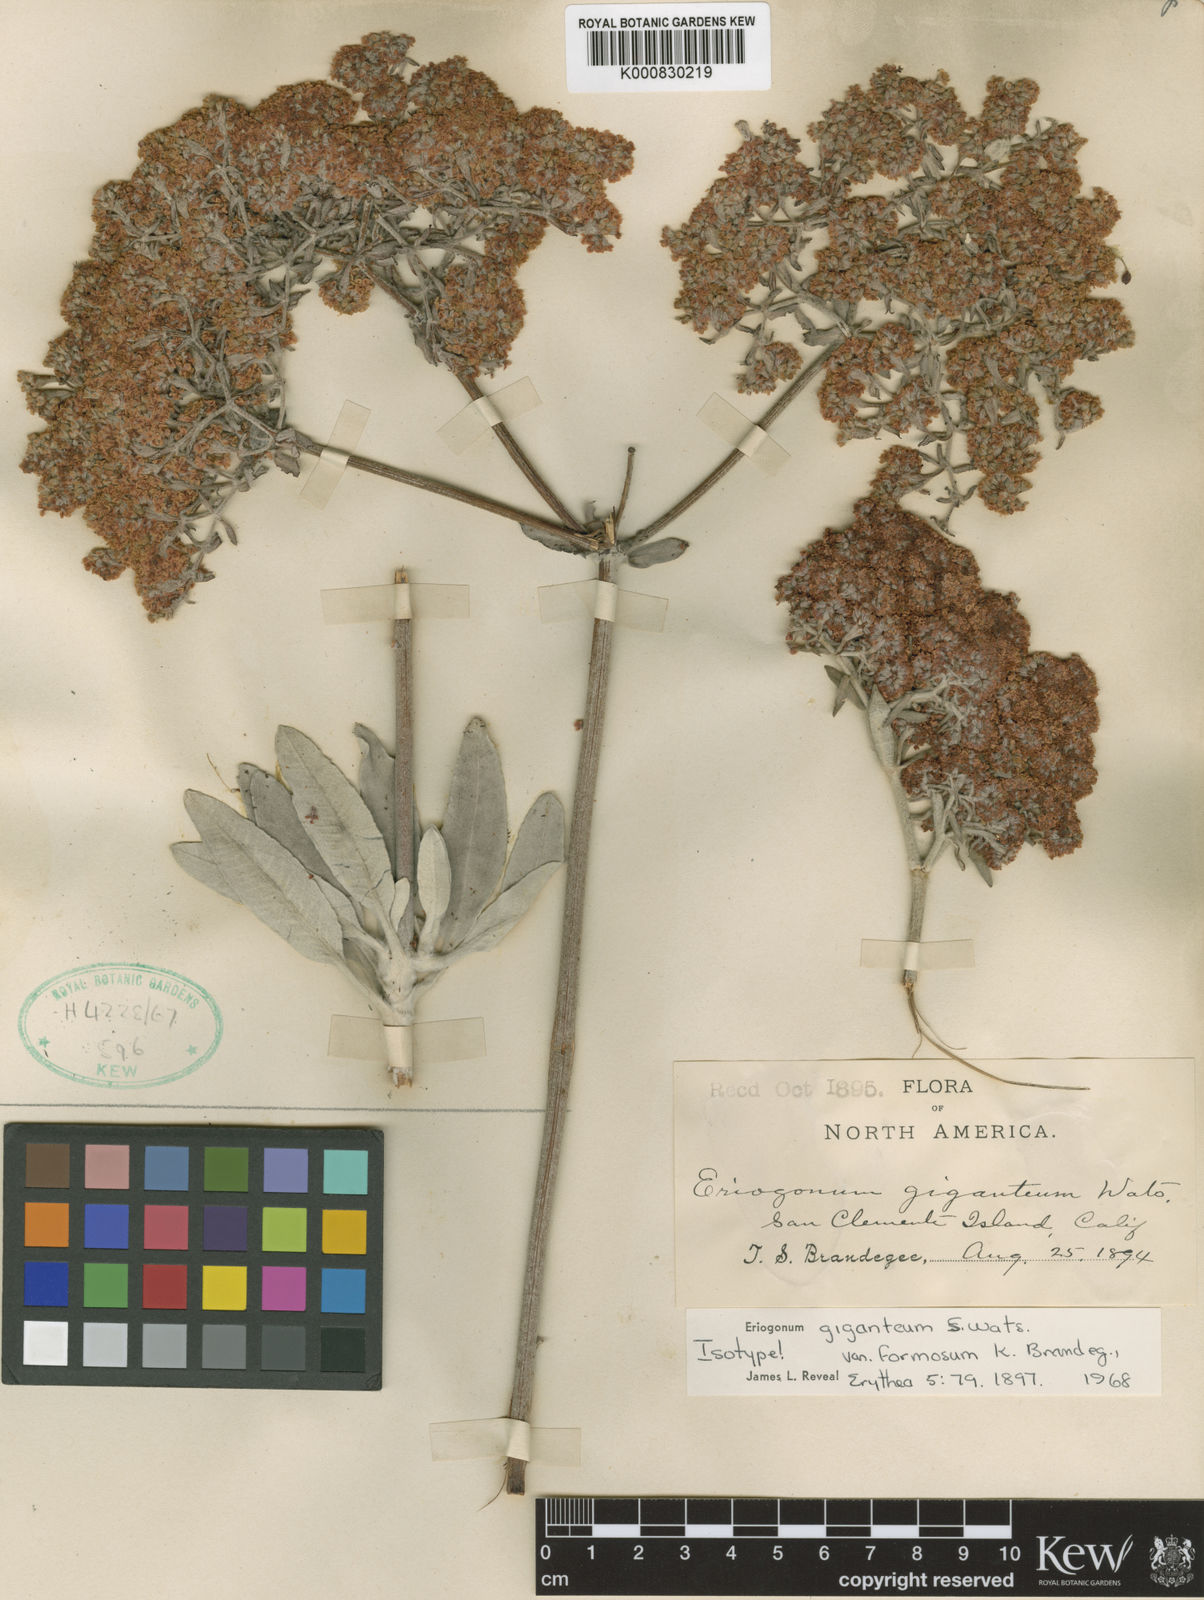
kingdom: Plantae
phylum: Tracheophyta
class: Magnoliopsida
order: Caryophyllales
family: Polygonaceae
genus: Eriogonum
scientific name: Eriogonum giganteum
